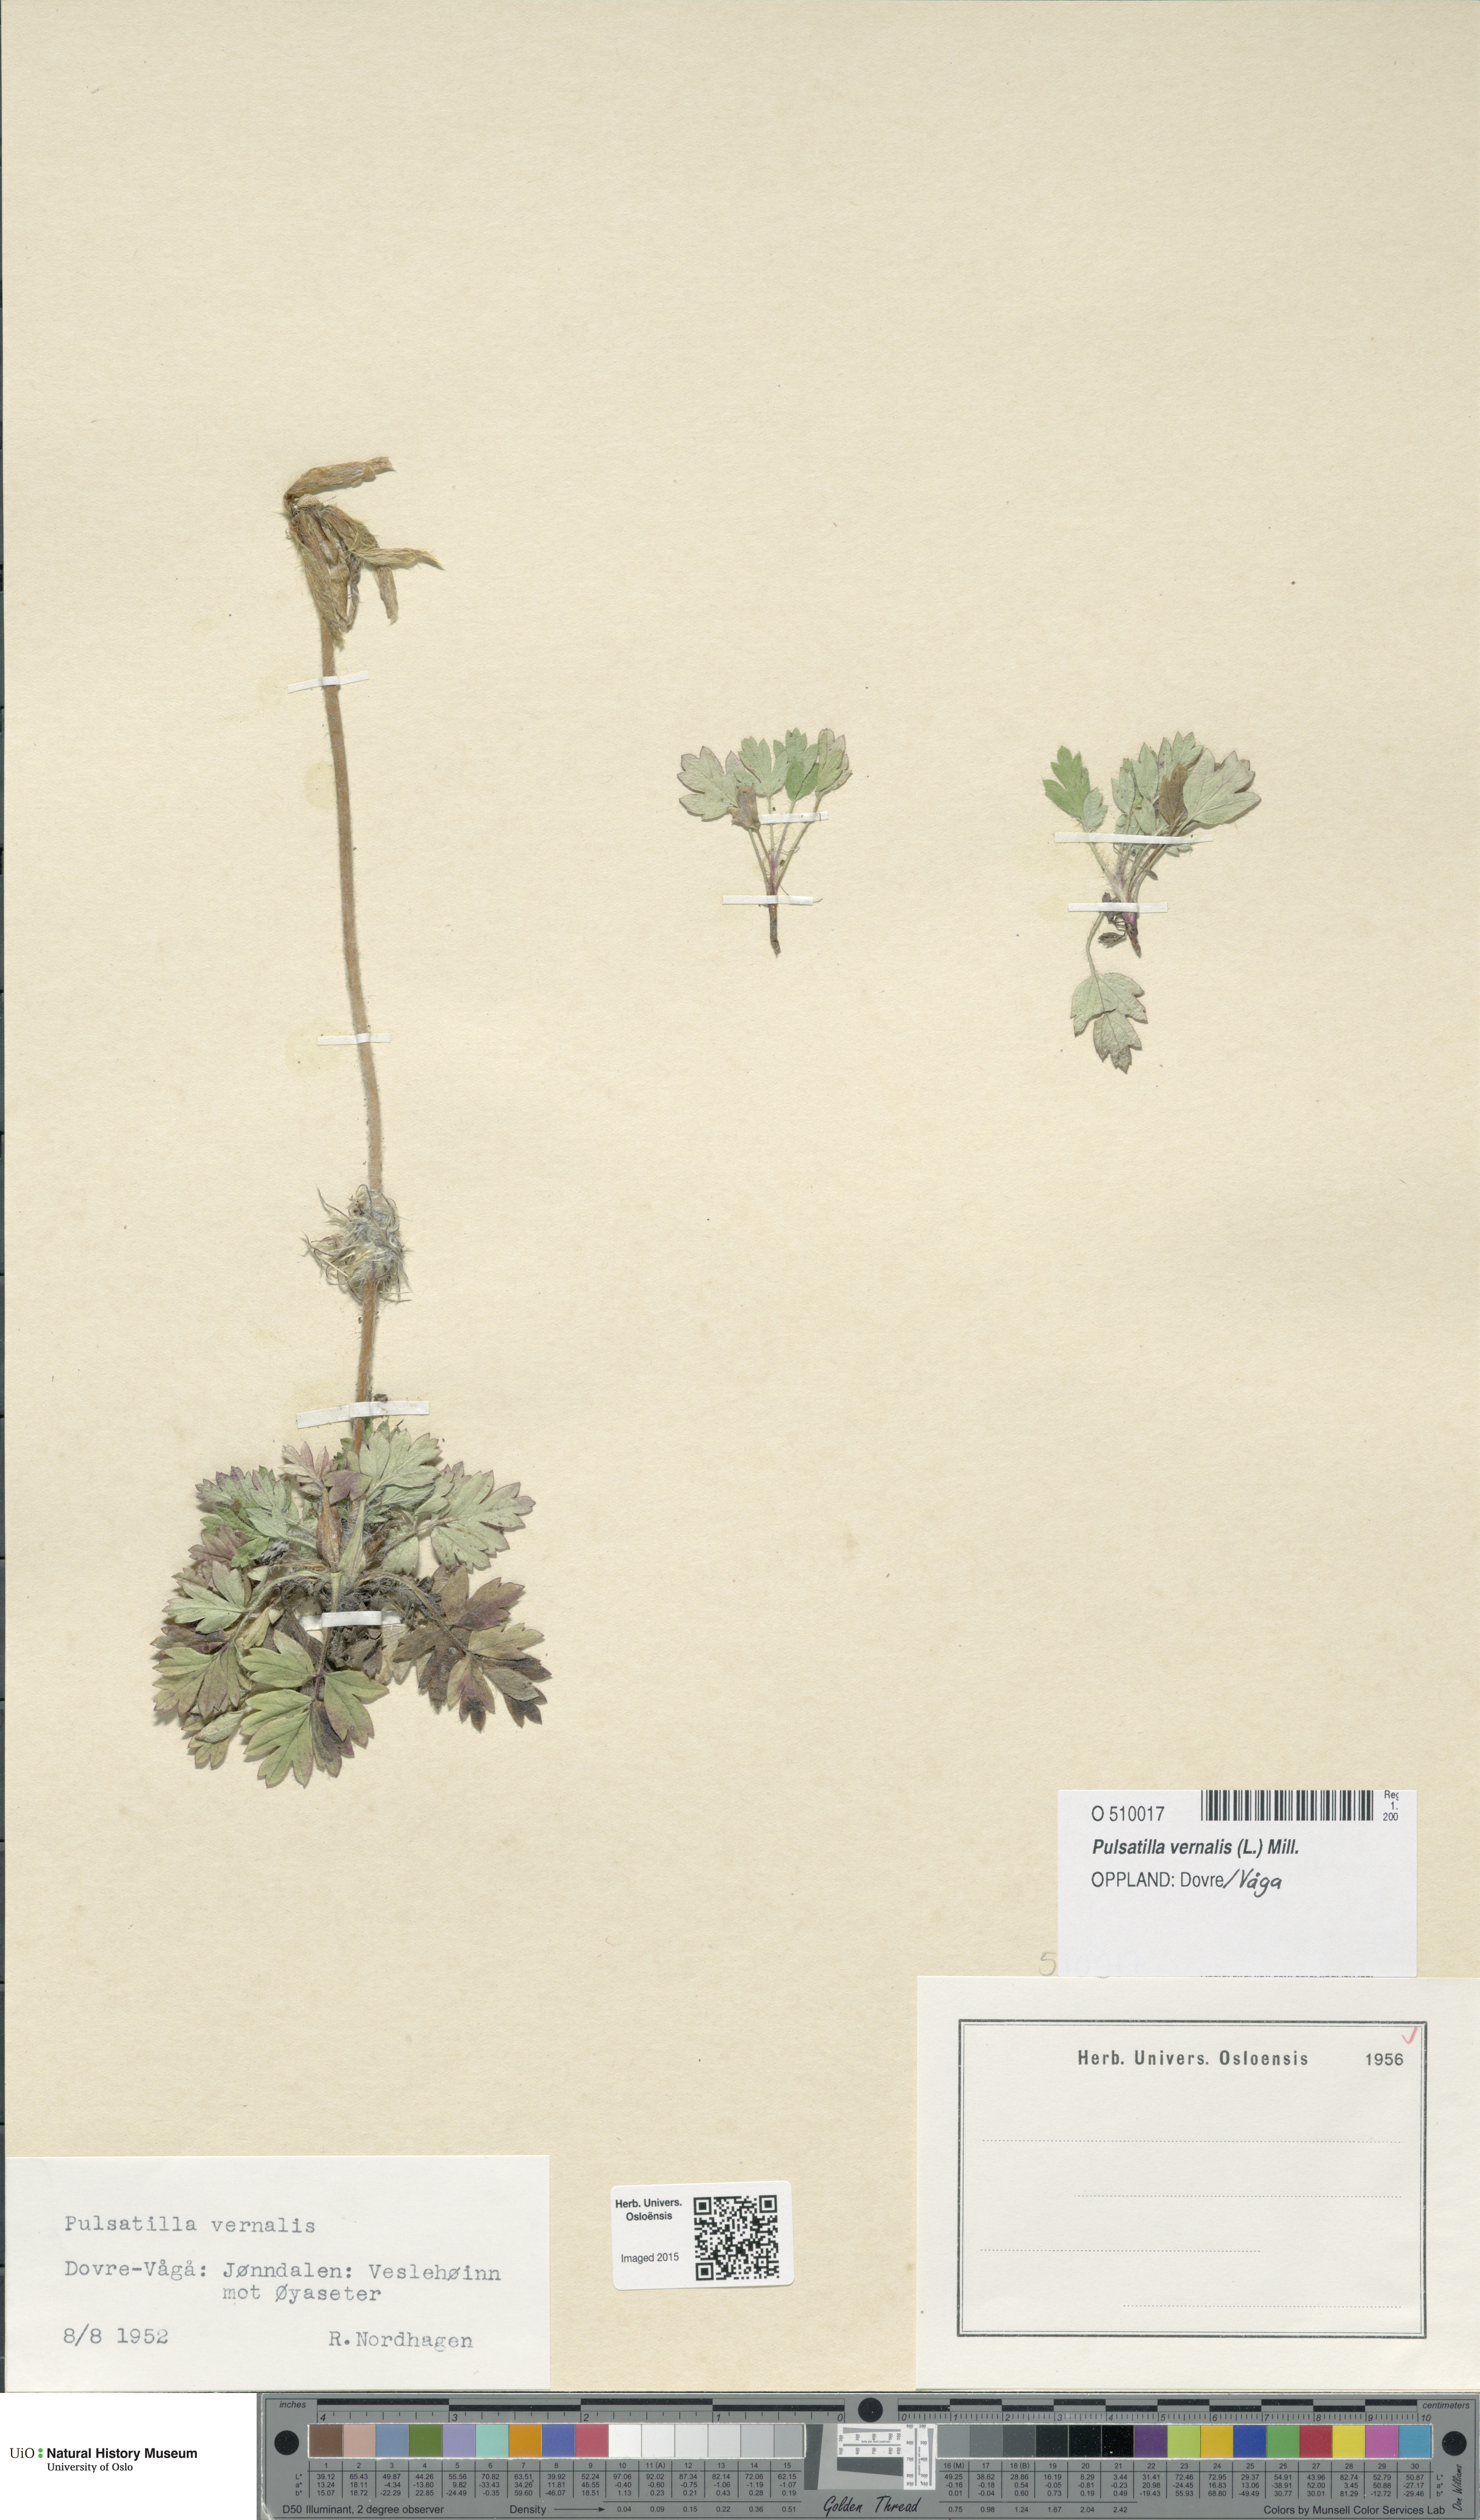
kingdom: Plantae
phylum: Tracheophyta
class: Magnoliopsida
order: Ranunculales
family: Ranunculaceae
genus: Pulsatilla
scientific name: Pulsatilla vernalis
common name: Spring pasque flower
